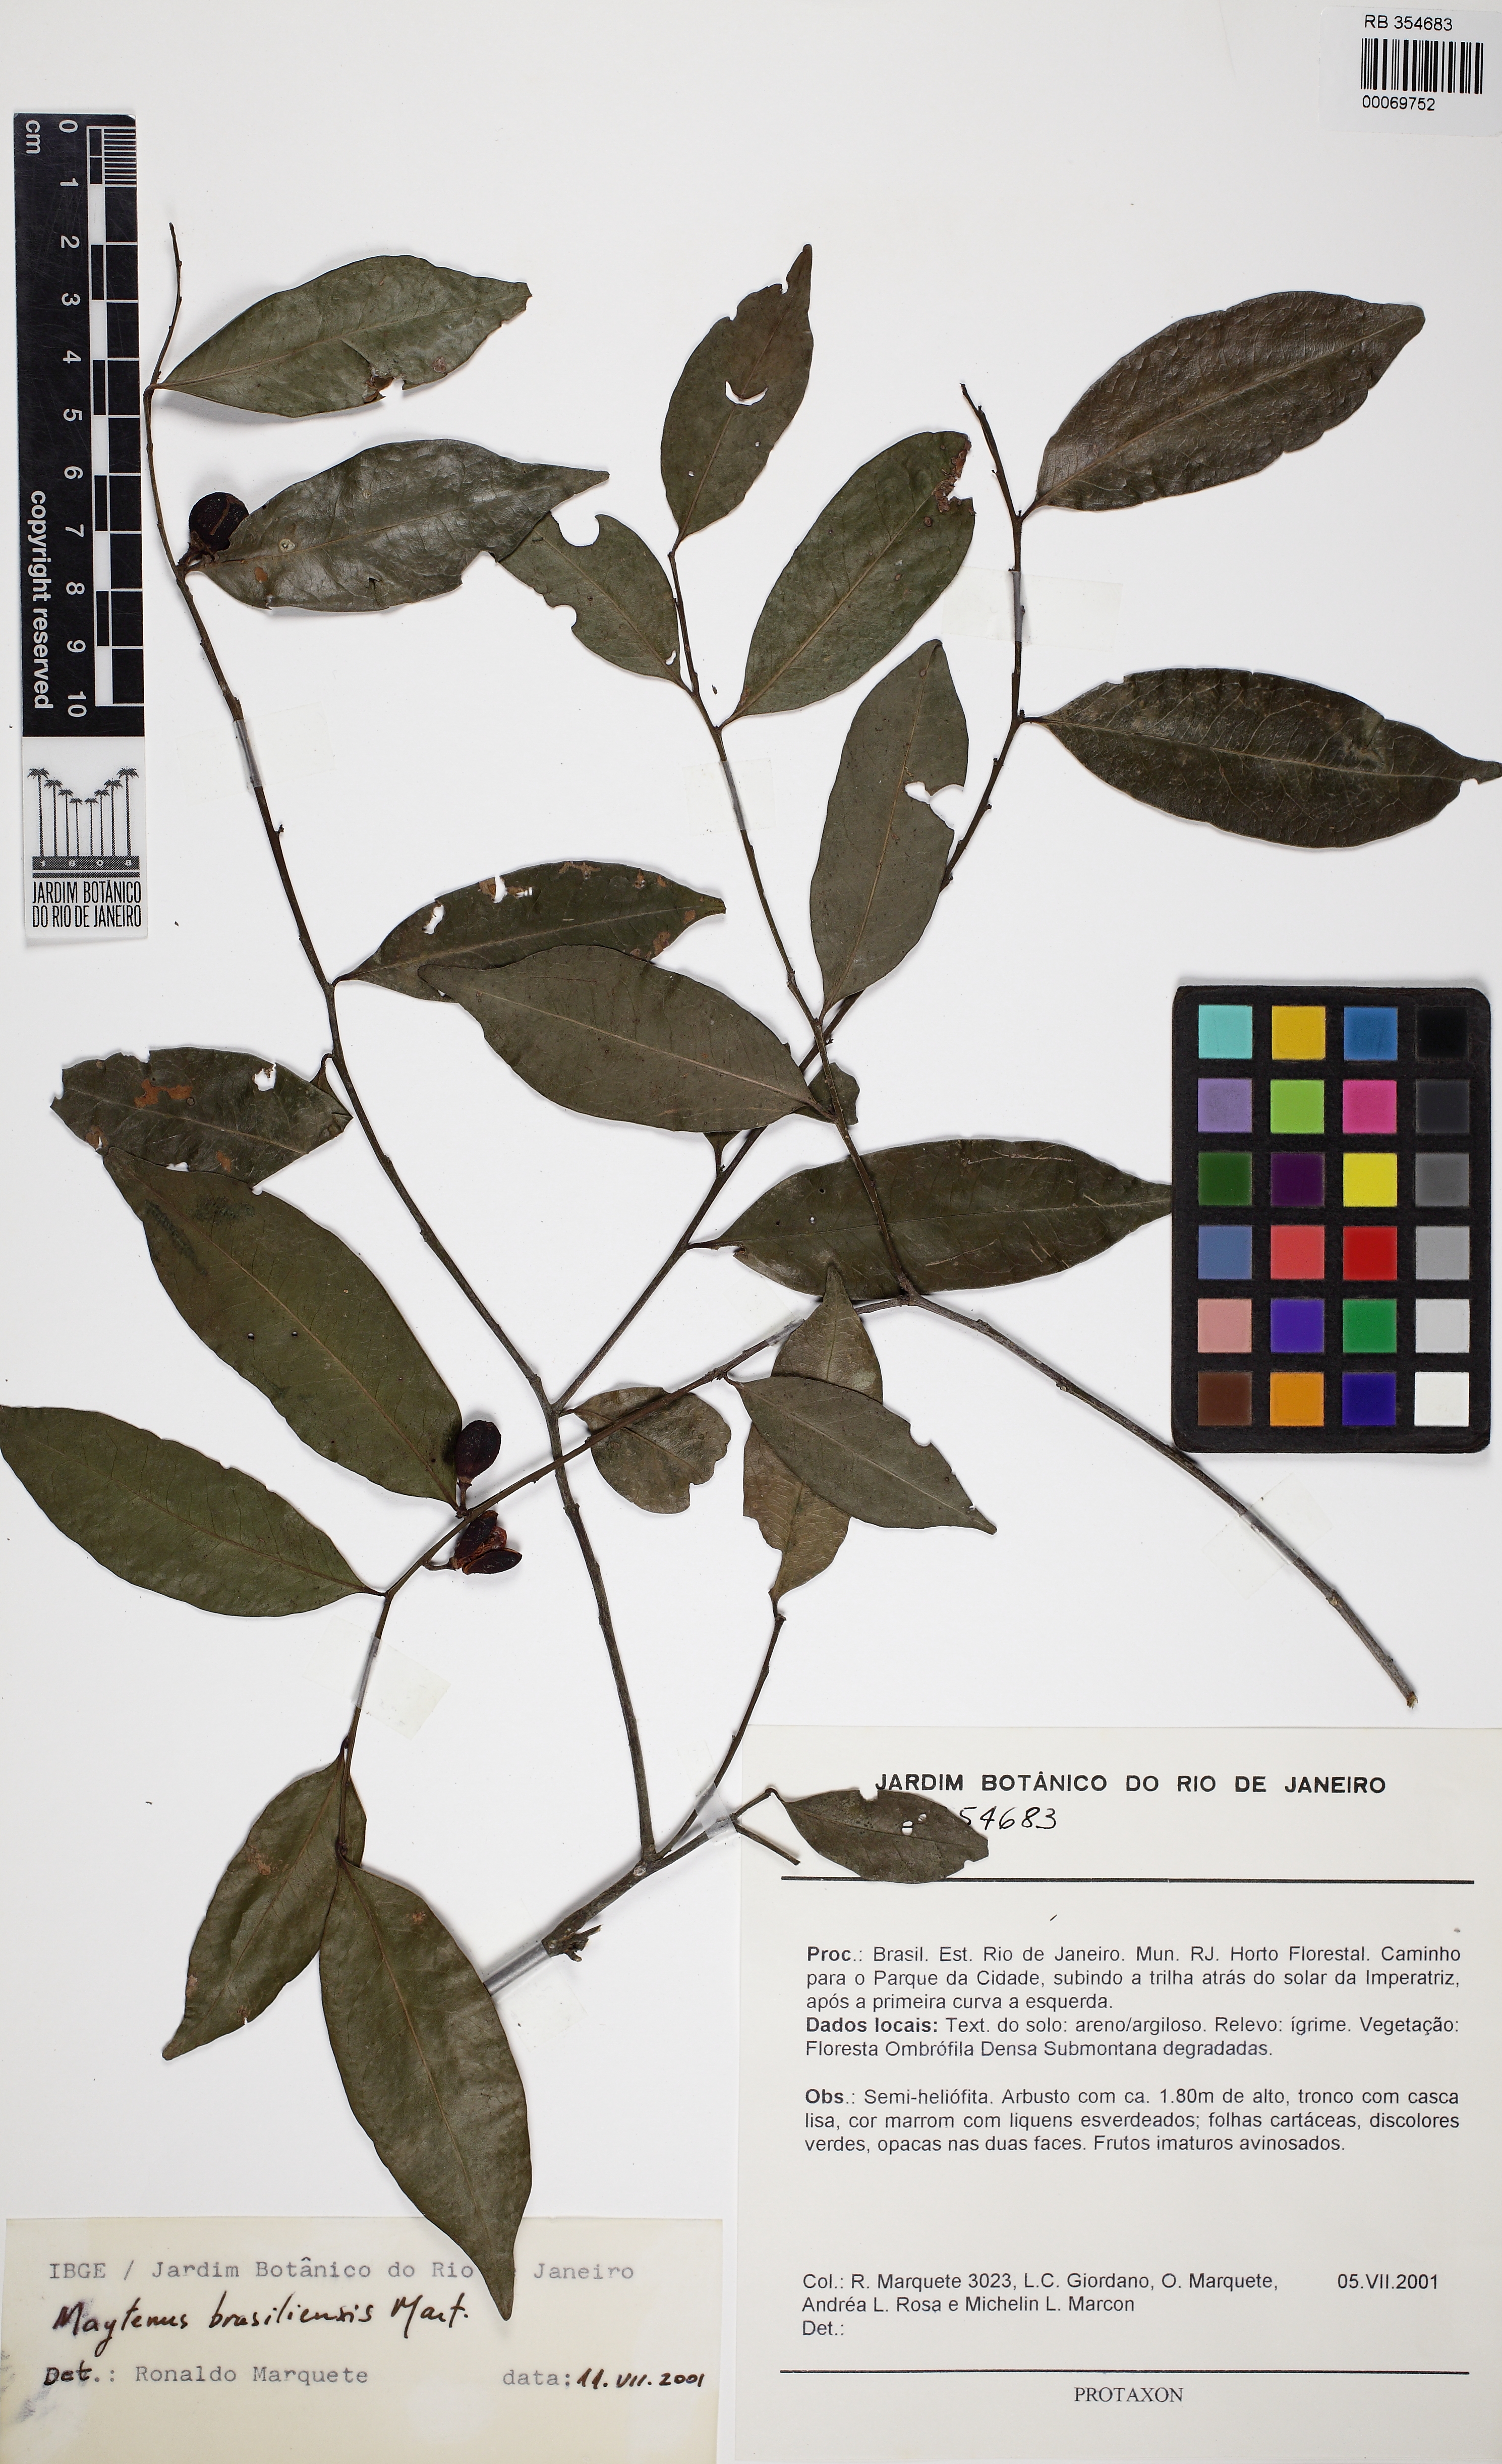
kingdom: Plantae
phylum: Tracheophyta
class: Magnoliopsida
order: Celastrales
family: Celastraceae
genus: Monteverdia
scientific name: Monteverdia brasiliensis
